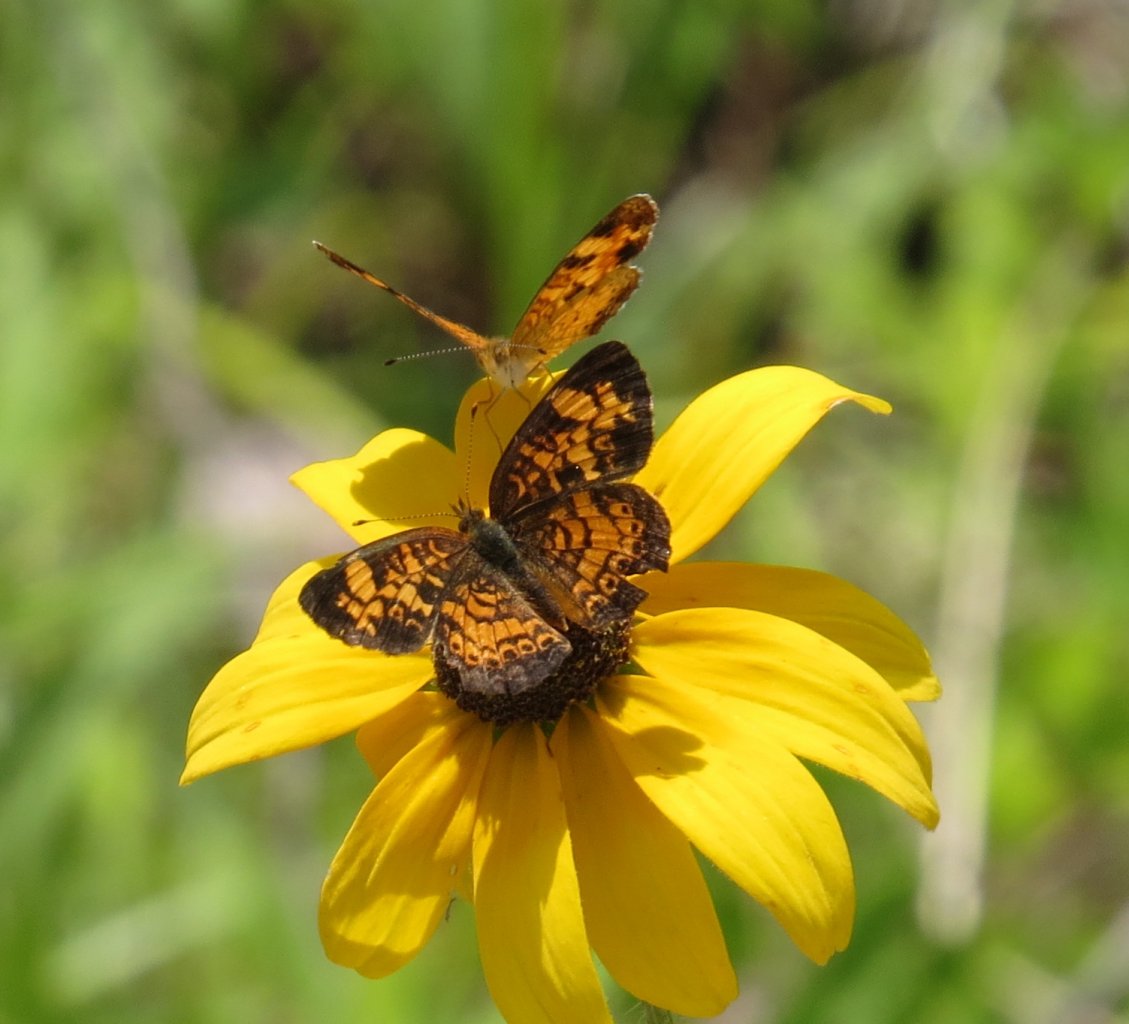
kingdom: Animalia
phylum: Arthropoda
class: Insecta
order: Lepidoptera
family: Nymphalidae
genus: Phyciodes
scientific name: Phyciodes tharos
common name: Pearl Crescent
